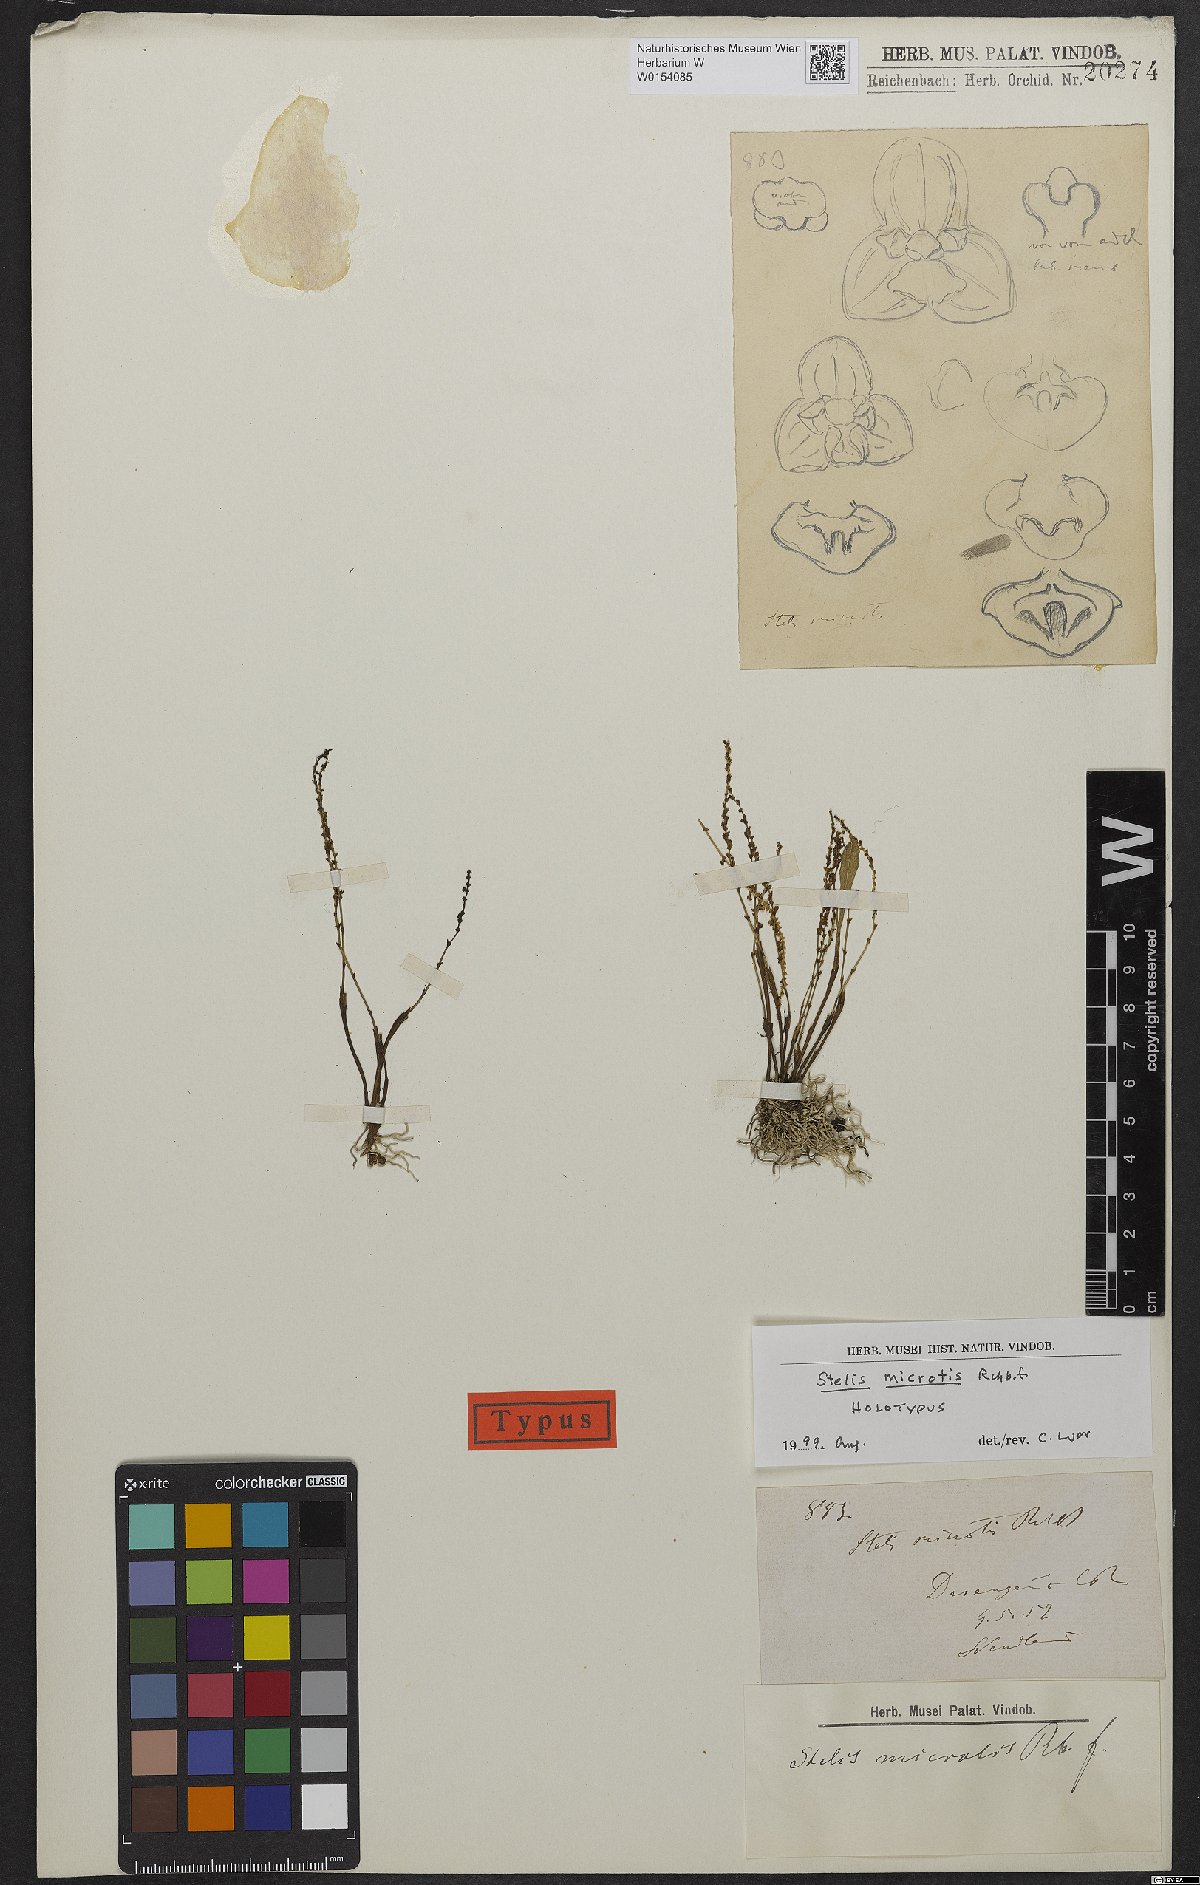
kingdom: Plantae
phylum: Tracheophyta
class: Liliopsida
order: Asparagales
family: Orchidaceae
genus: Stelis
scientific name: Stelis microtis
